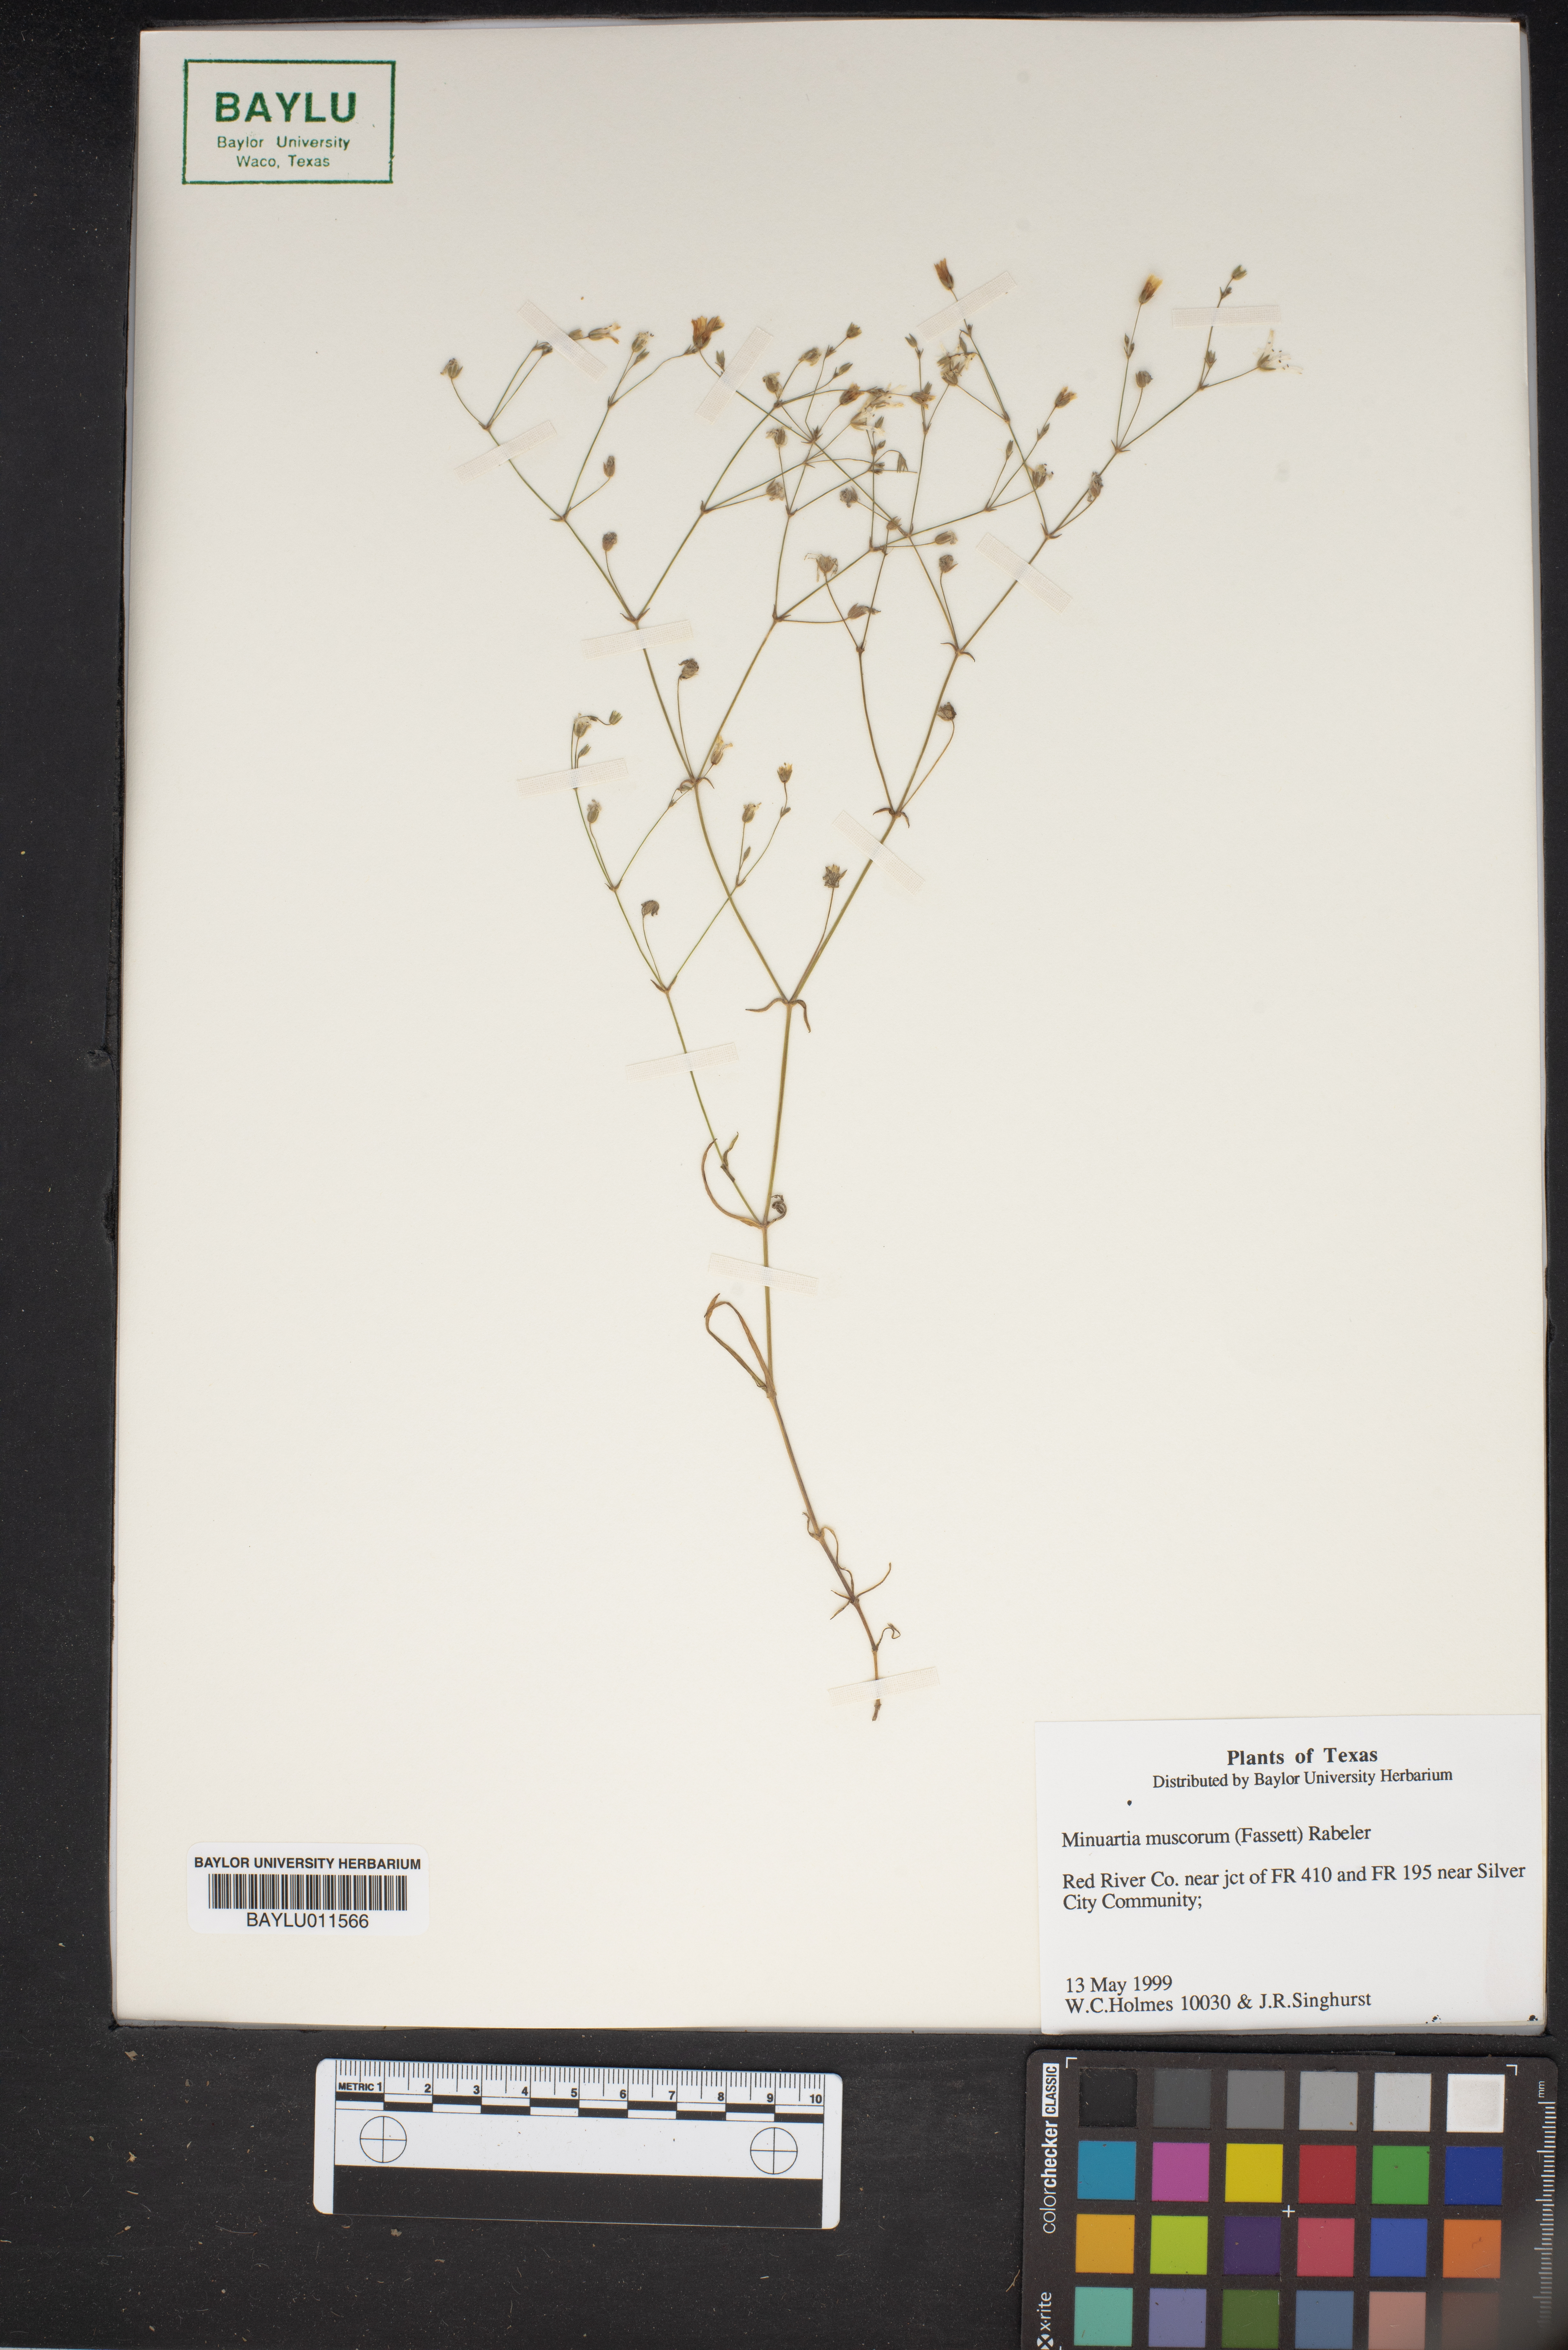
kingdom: Plantae
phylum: Tracheophyta
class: Magnoliopsida
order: Caryophyllales
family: Caryophyllaceae
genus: Mononeuria
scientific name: Mononeuria muscorum
